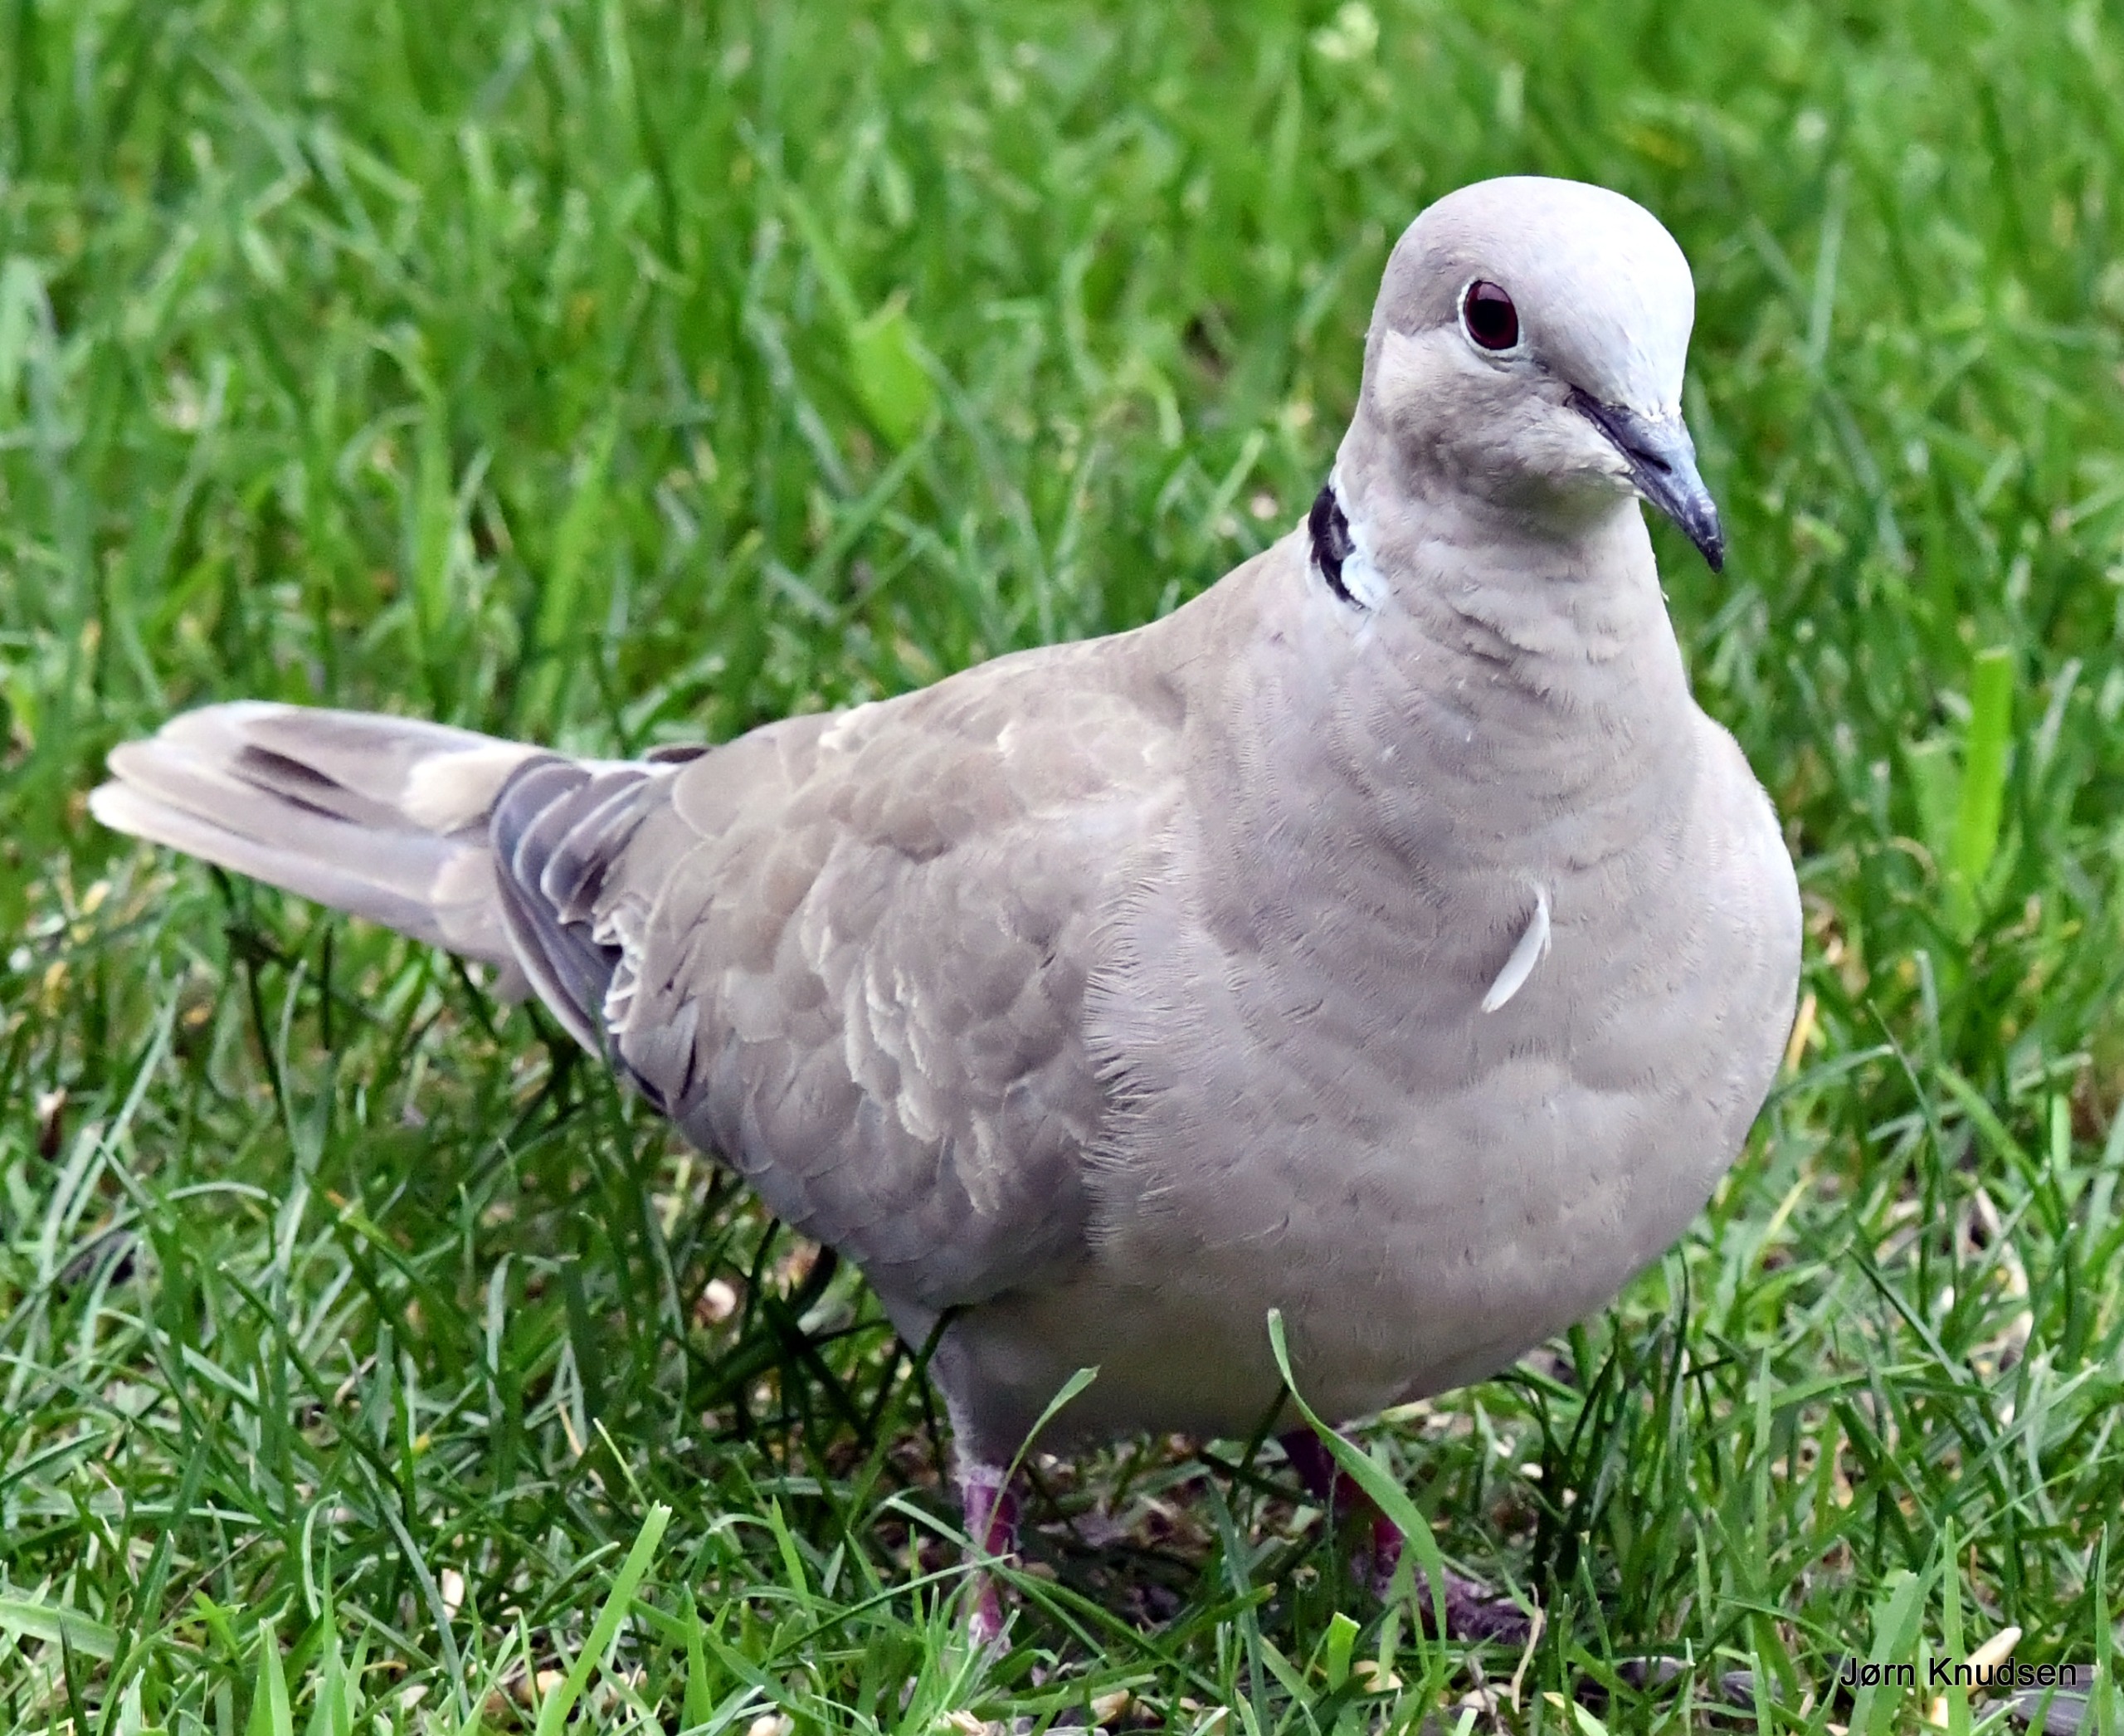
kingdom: Animalia
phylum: Chordata
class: Aves
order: Columbiformes
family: Columbidae
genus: Streptopelia
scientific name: Streptopelia decaocto
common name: Tyrkerdue
